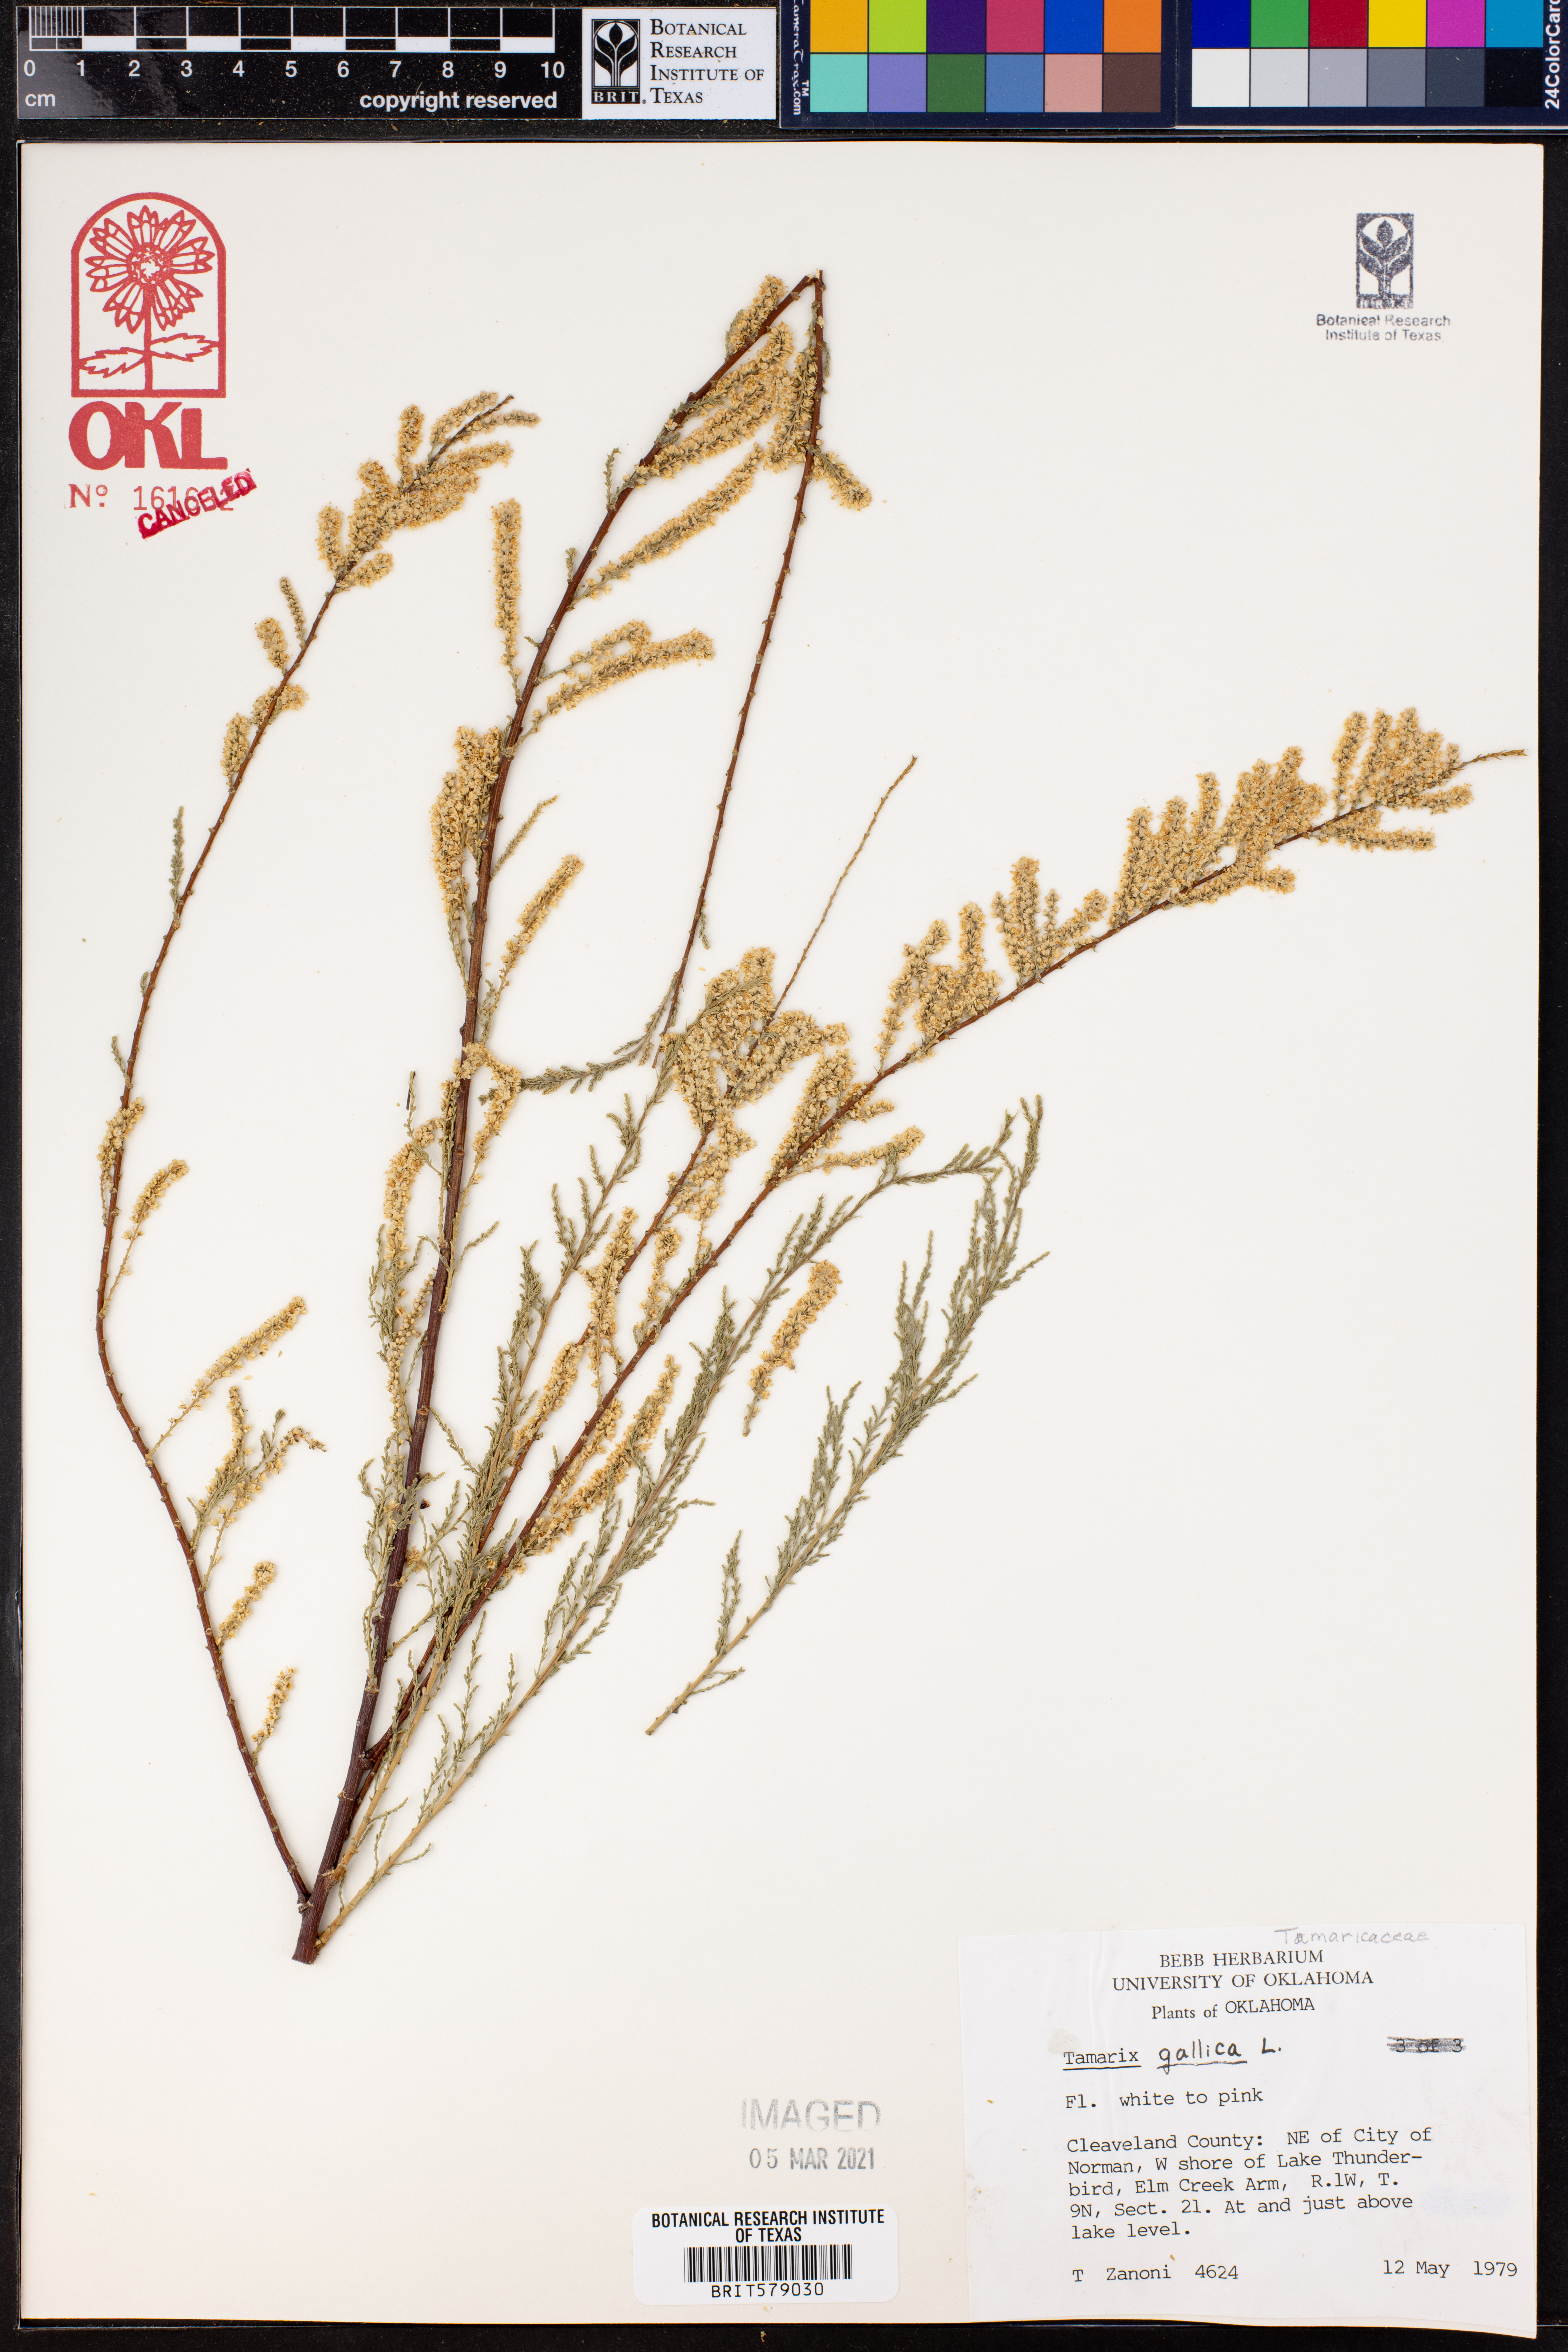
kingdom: Plantae
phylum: Tracheophyta
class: Magnoliopsida
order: Caryophyllales
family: Tamaricaceae
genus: Tamarix
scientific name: Tamarix gallica
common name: Tamarisk
